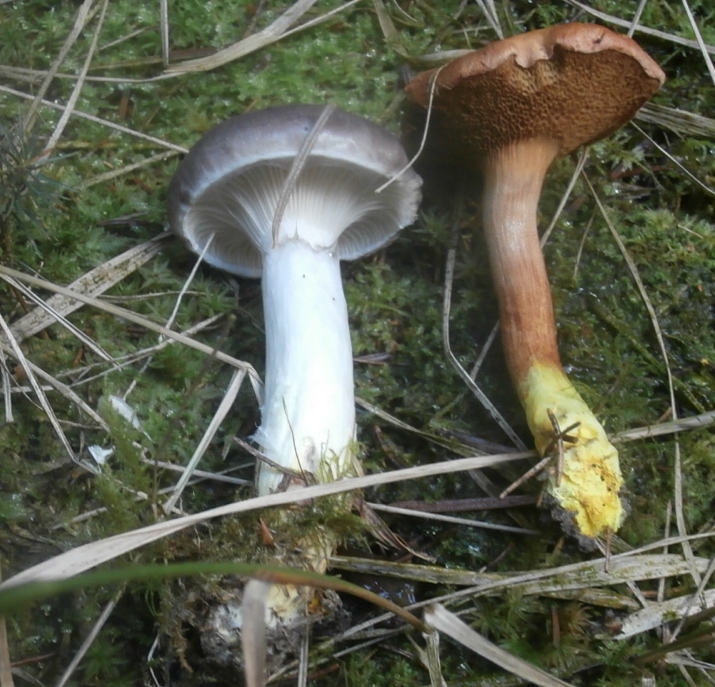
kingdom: Fungi
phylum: Basidiomycota
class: Agaricomycetes
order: Boletales
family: Gomphidiaceae
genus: Gomphidius
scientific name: Gomphidius glutinosus
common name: grå slimslør
